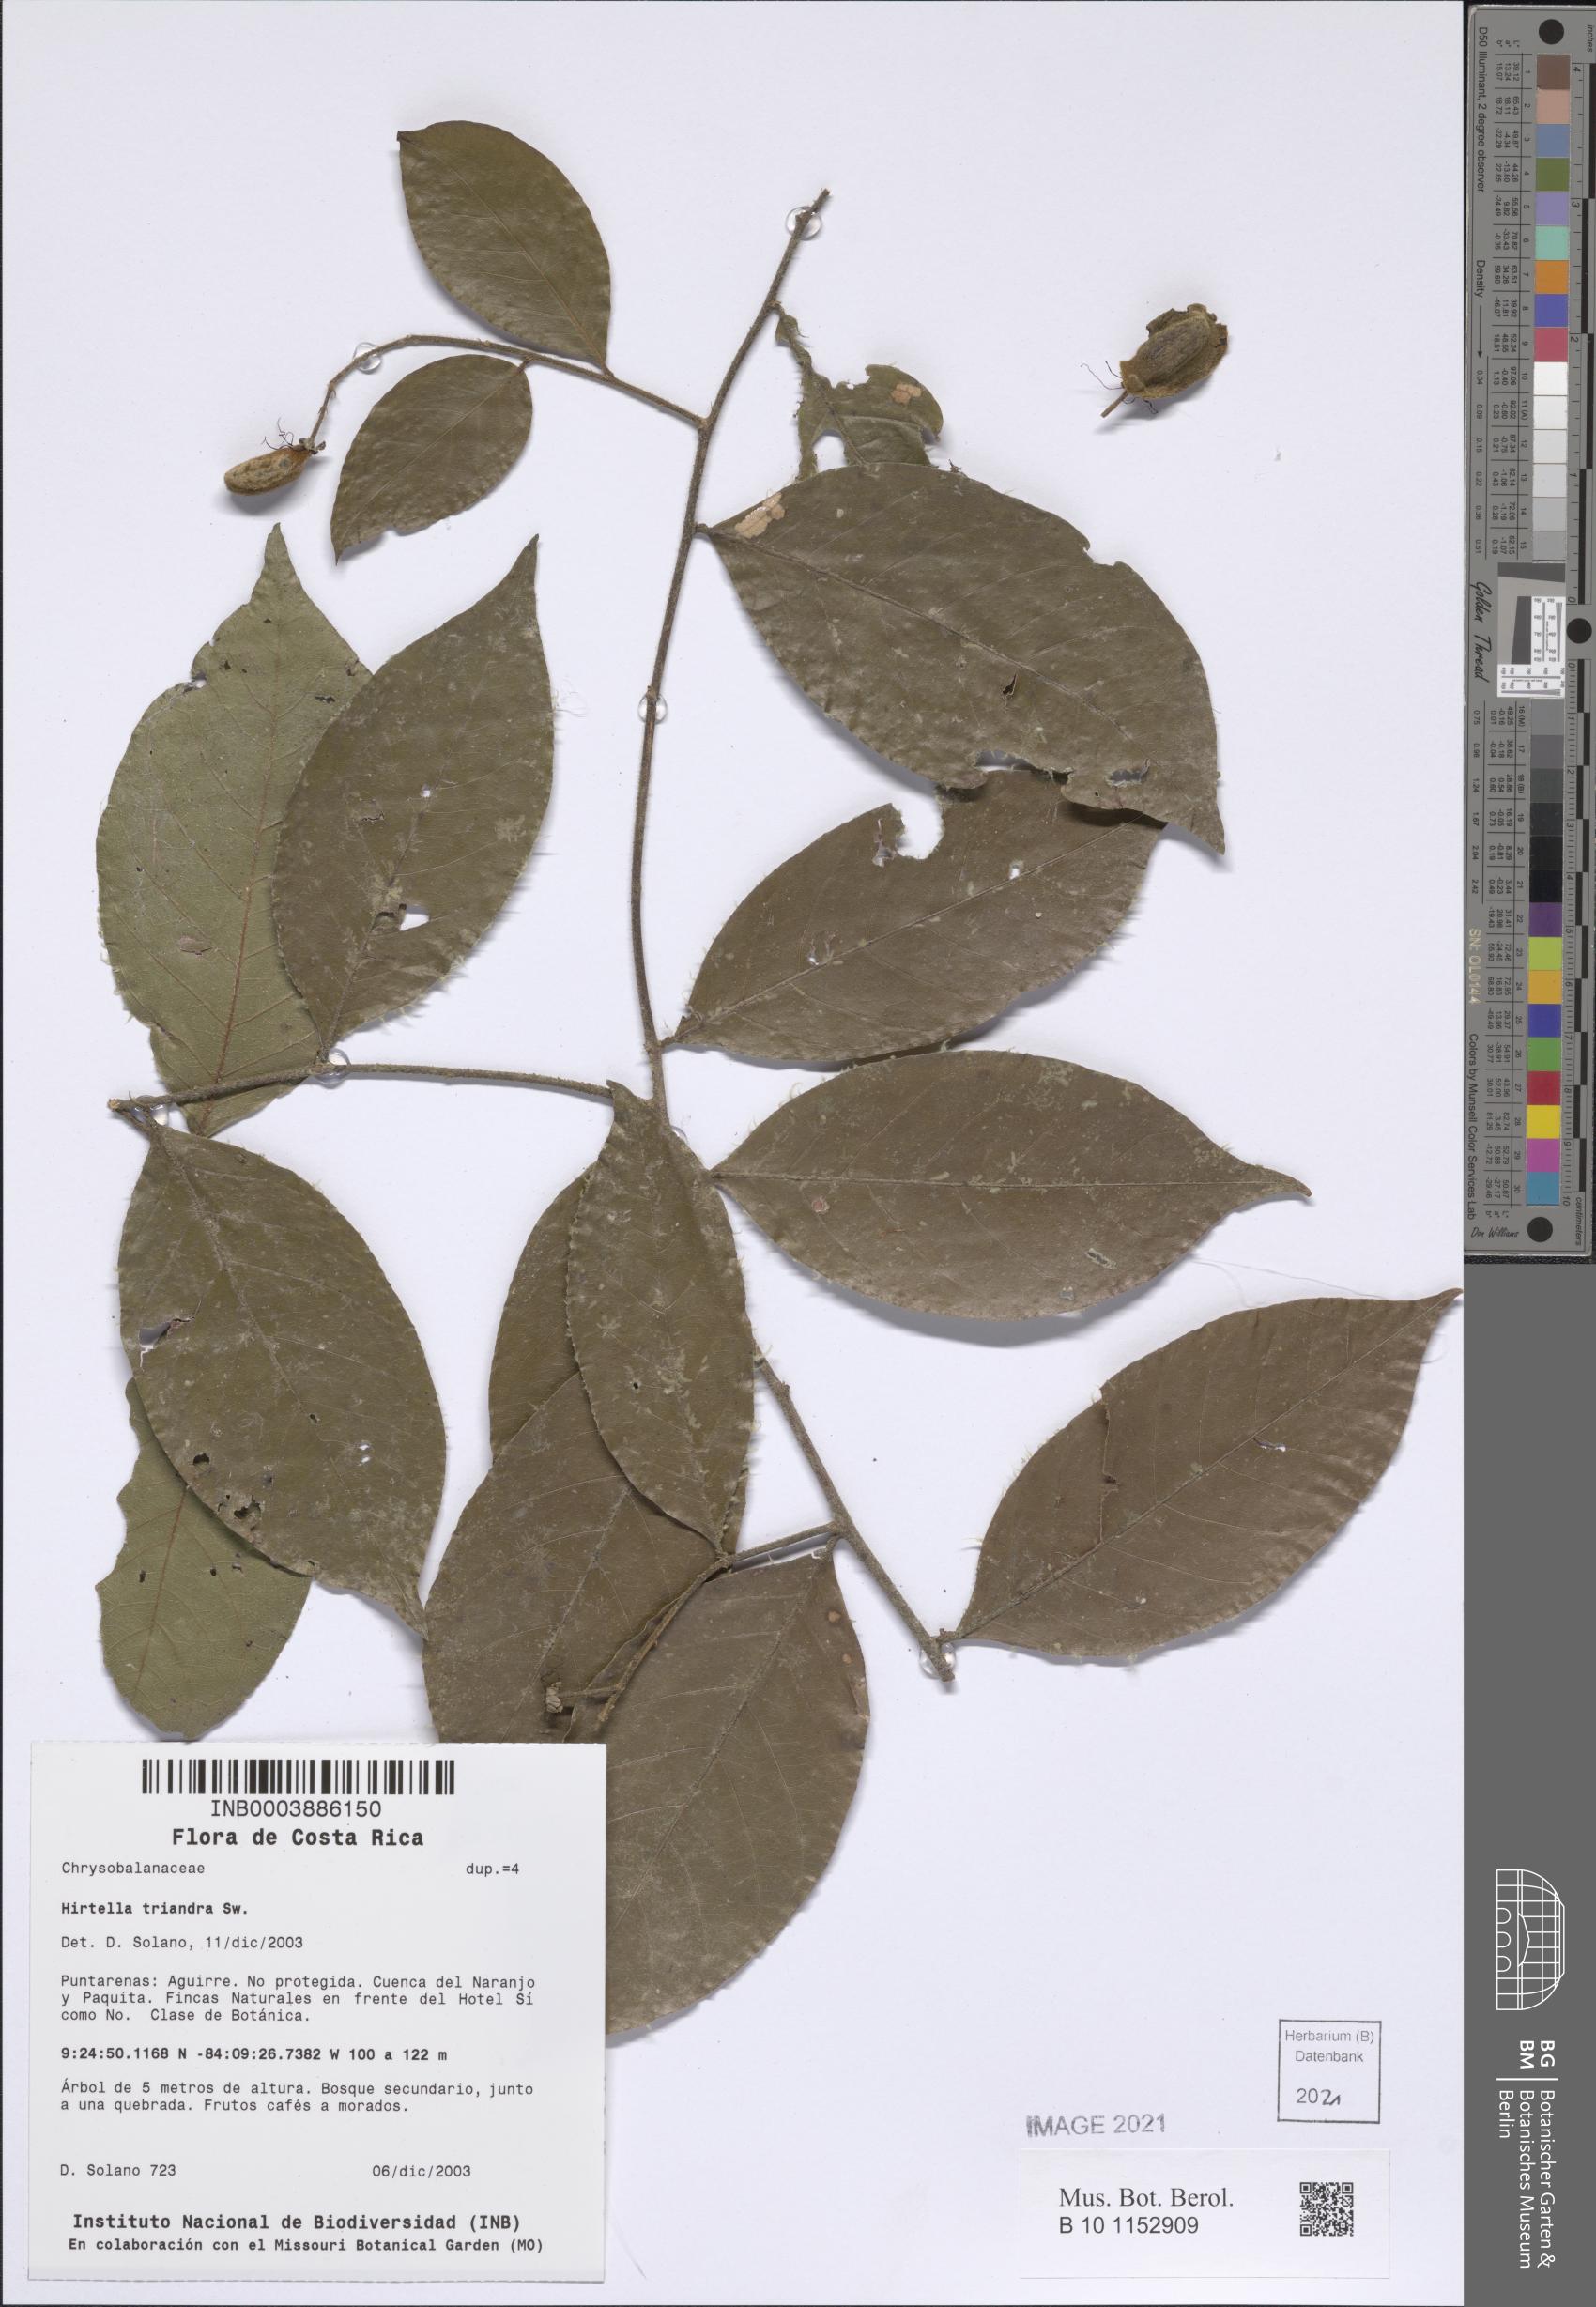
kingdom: Plantae
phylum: Tracheophyta
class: Magnoliopsida
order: Malpighiales
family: Chrysobalanaceae
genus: Hirtella
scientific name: Hirtella triandra
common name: Hairy plum
